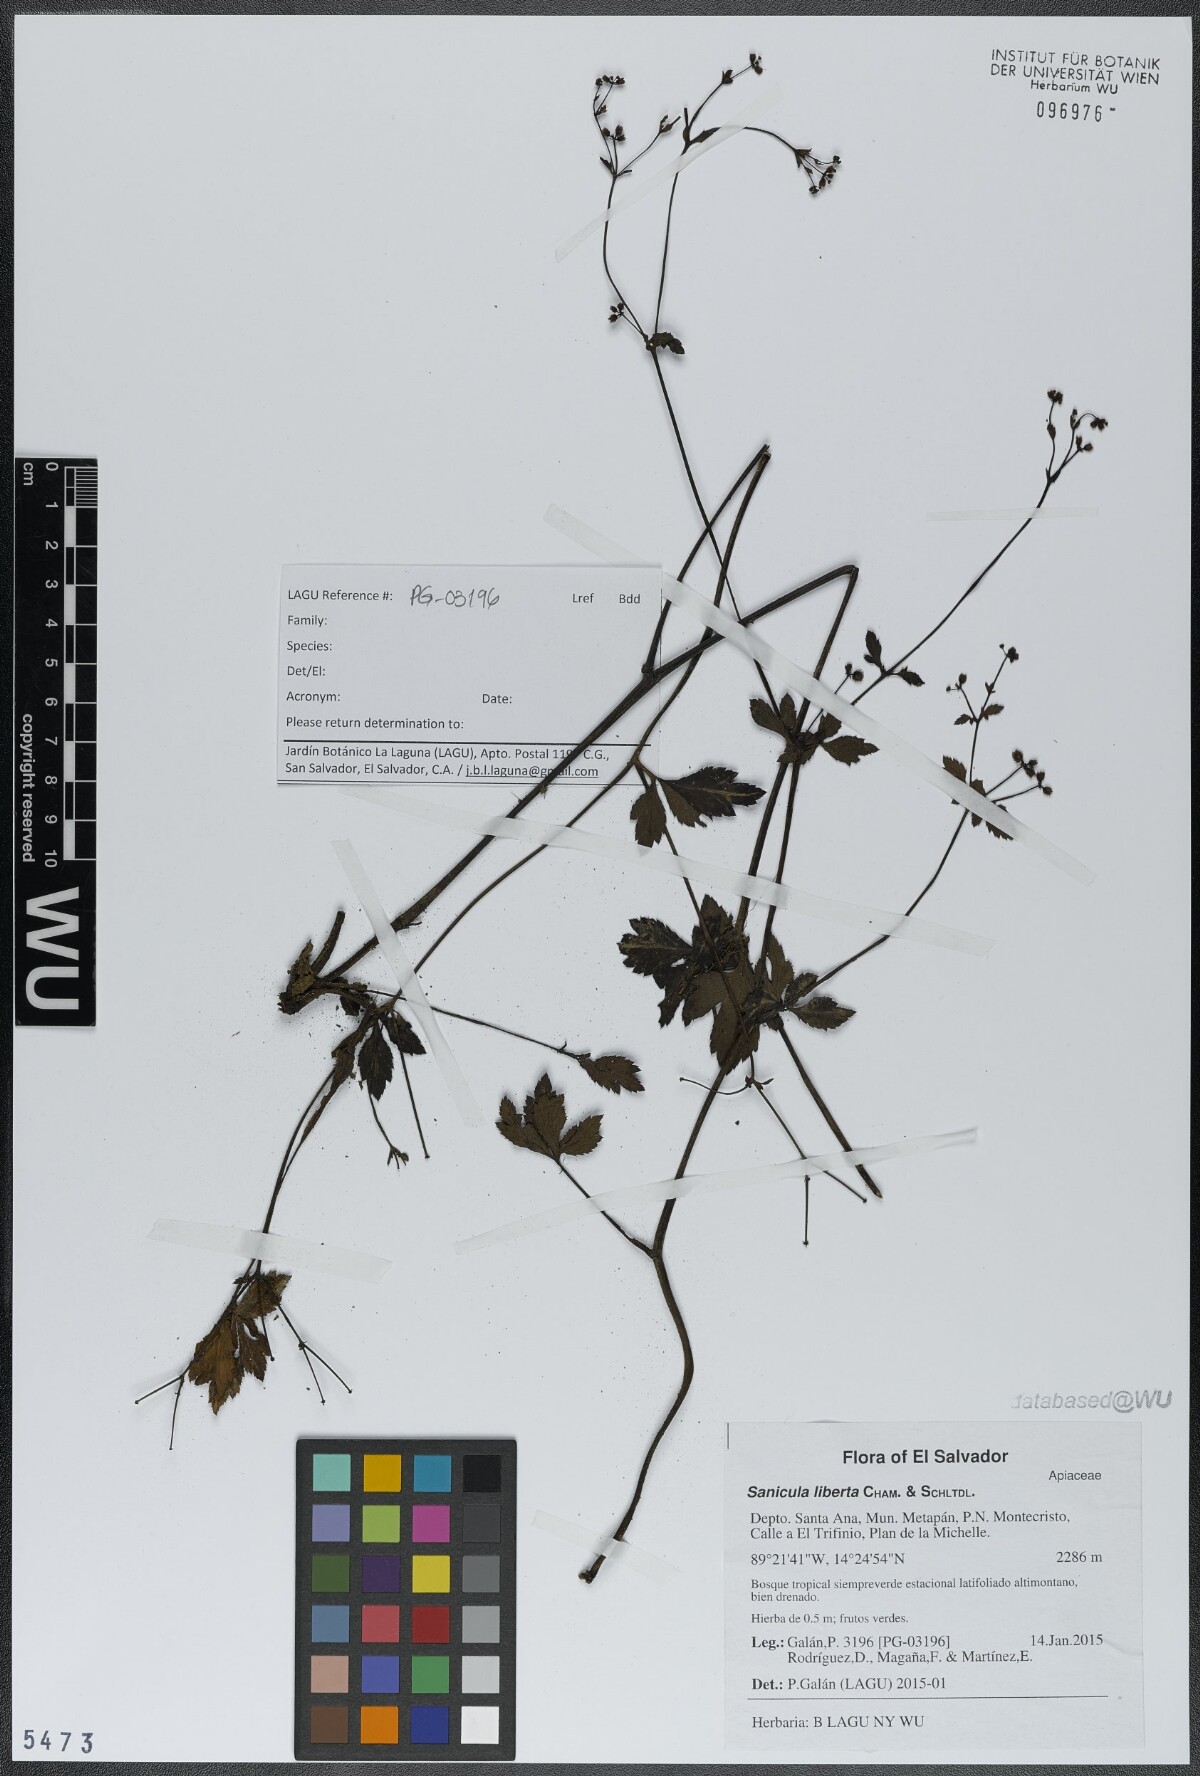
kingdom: Plantae
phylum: Tracheophyta
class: Magnoliopsida
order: Apiales
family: Apiaceae
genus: Sanicula
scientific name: Sanicula liberta
